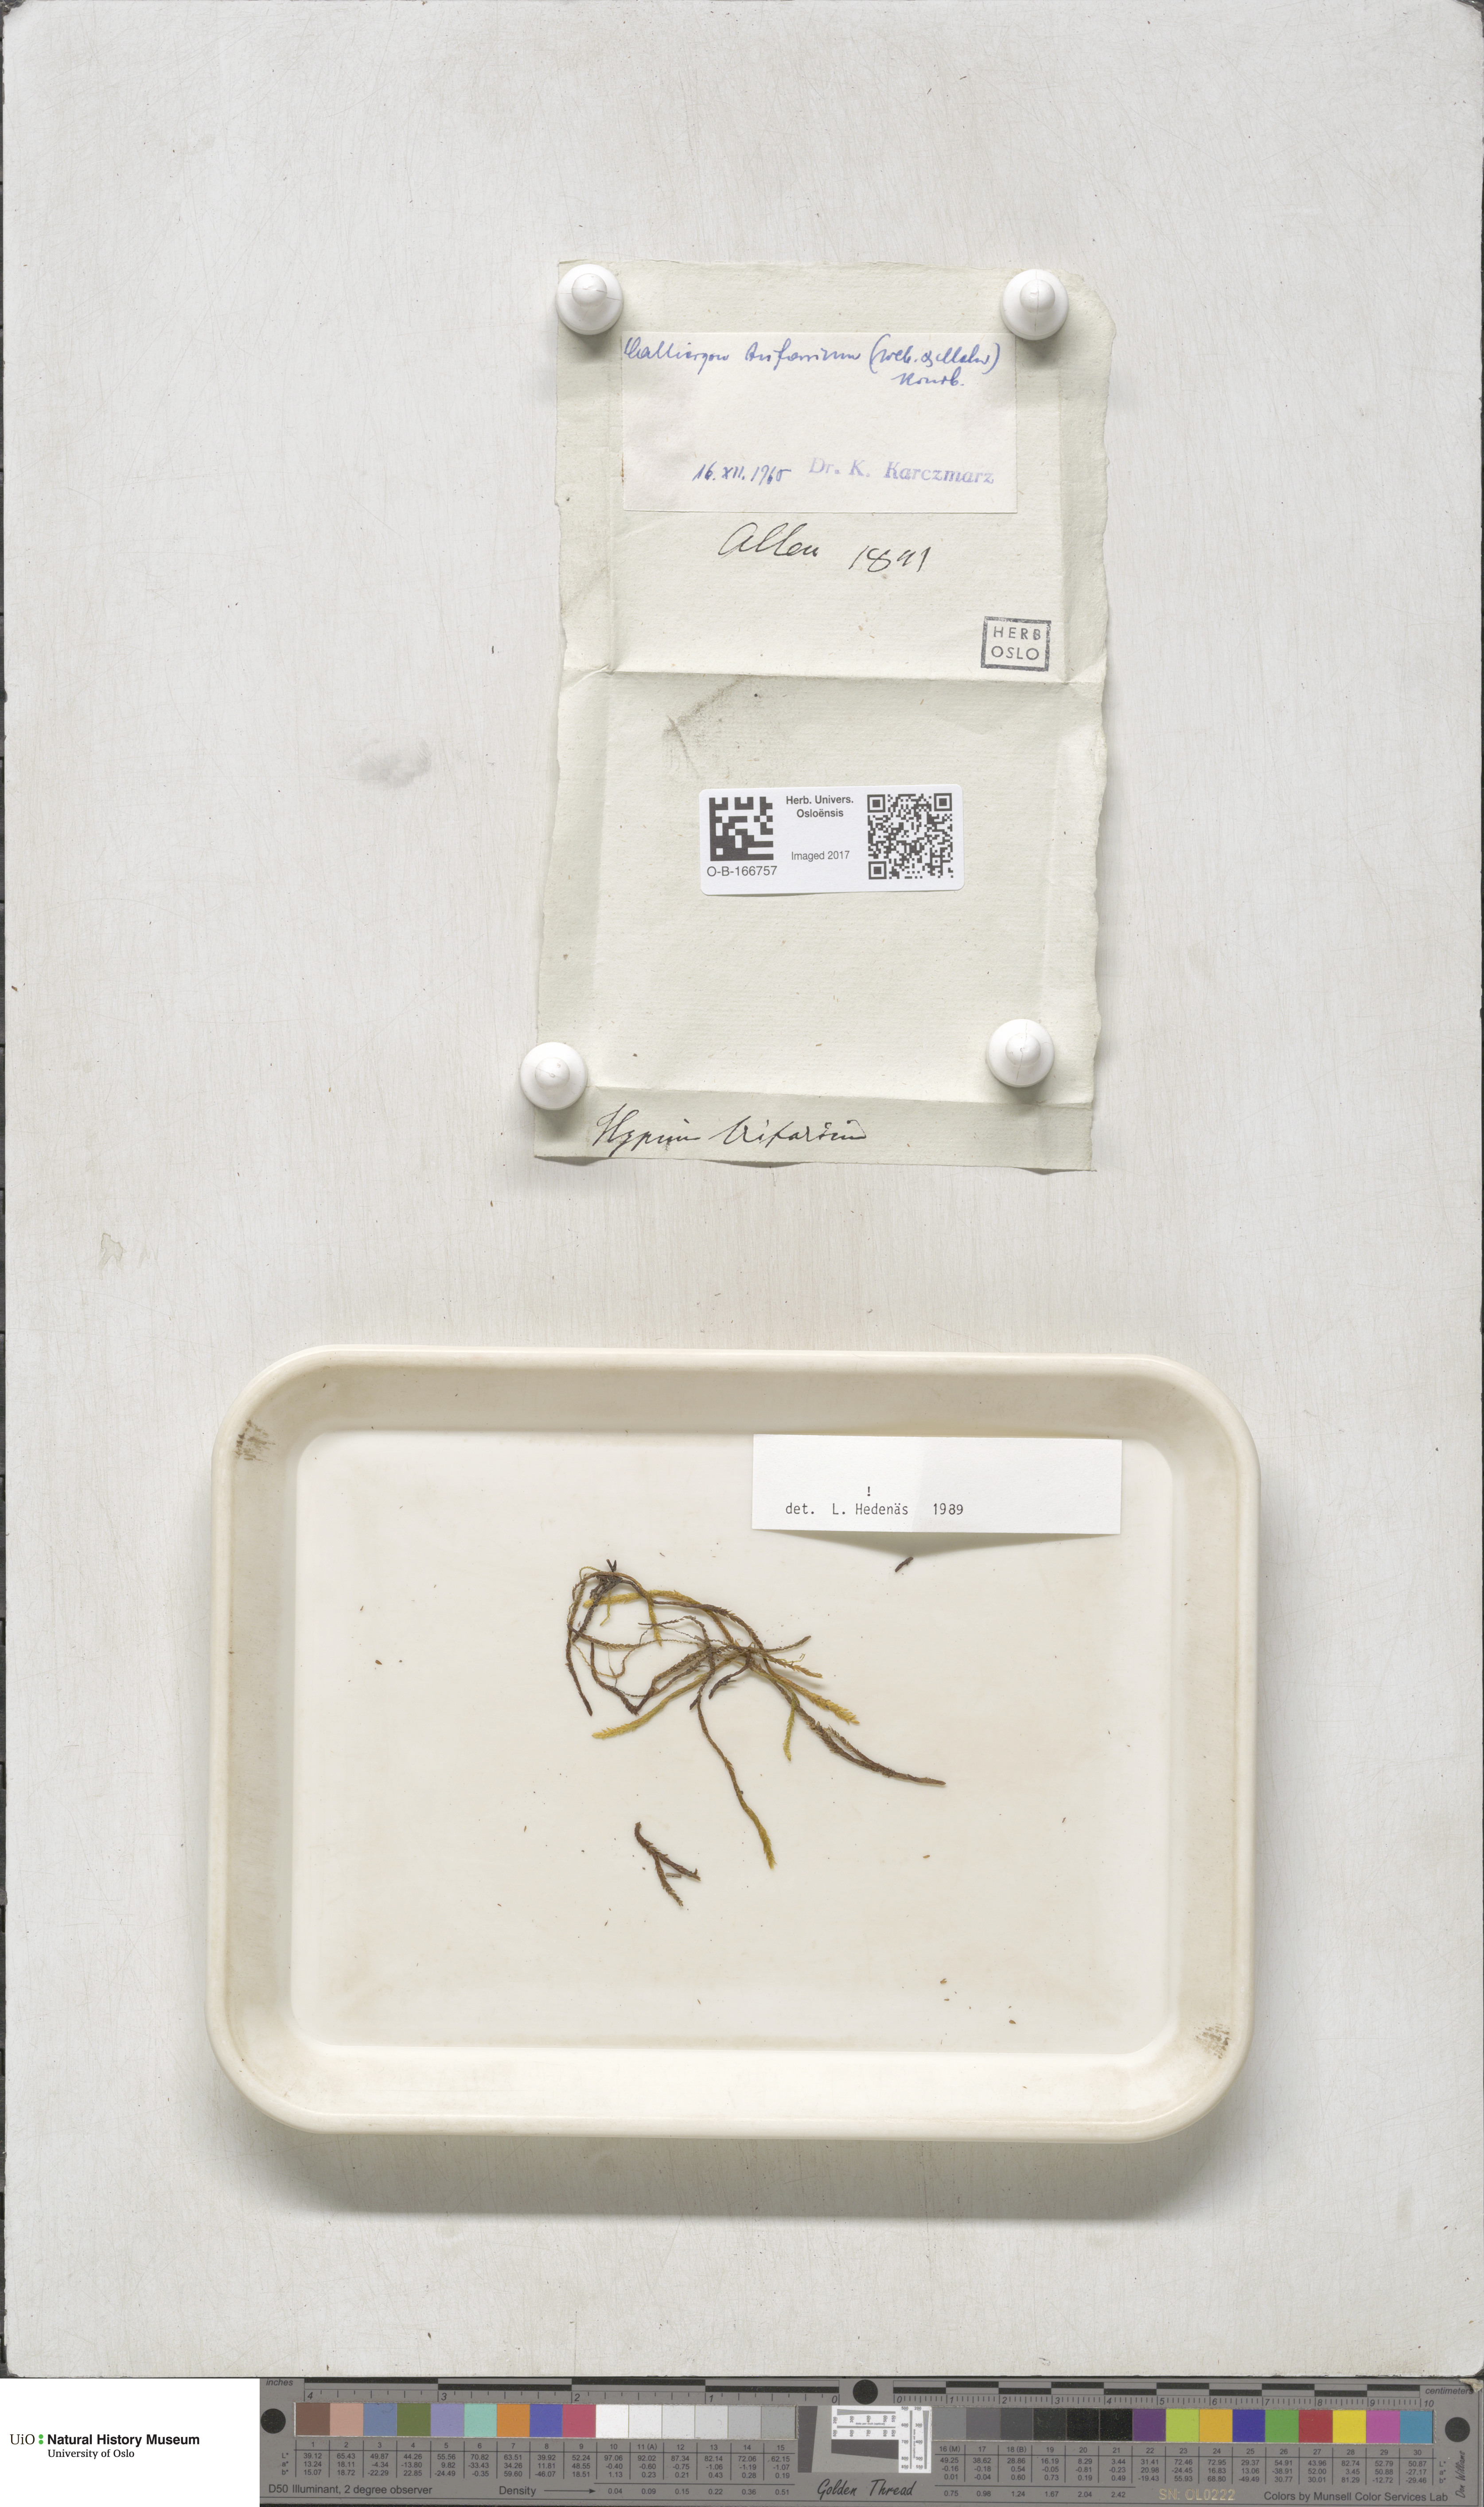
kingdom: Plantae
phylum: Bryophyta
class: Bryopsida
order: Hypnales
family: Amblystegiaceae
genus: Drepanocladus
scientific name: Drepanocladus trifarius
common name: Calliergon moss
